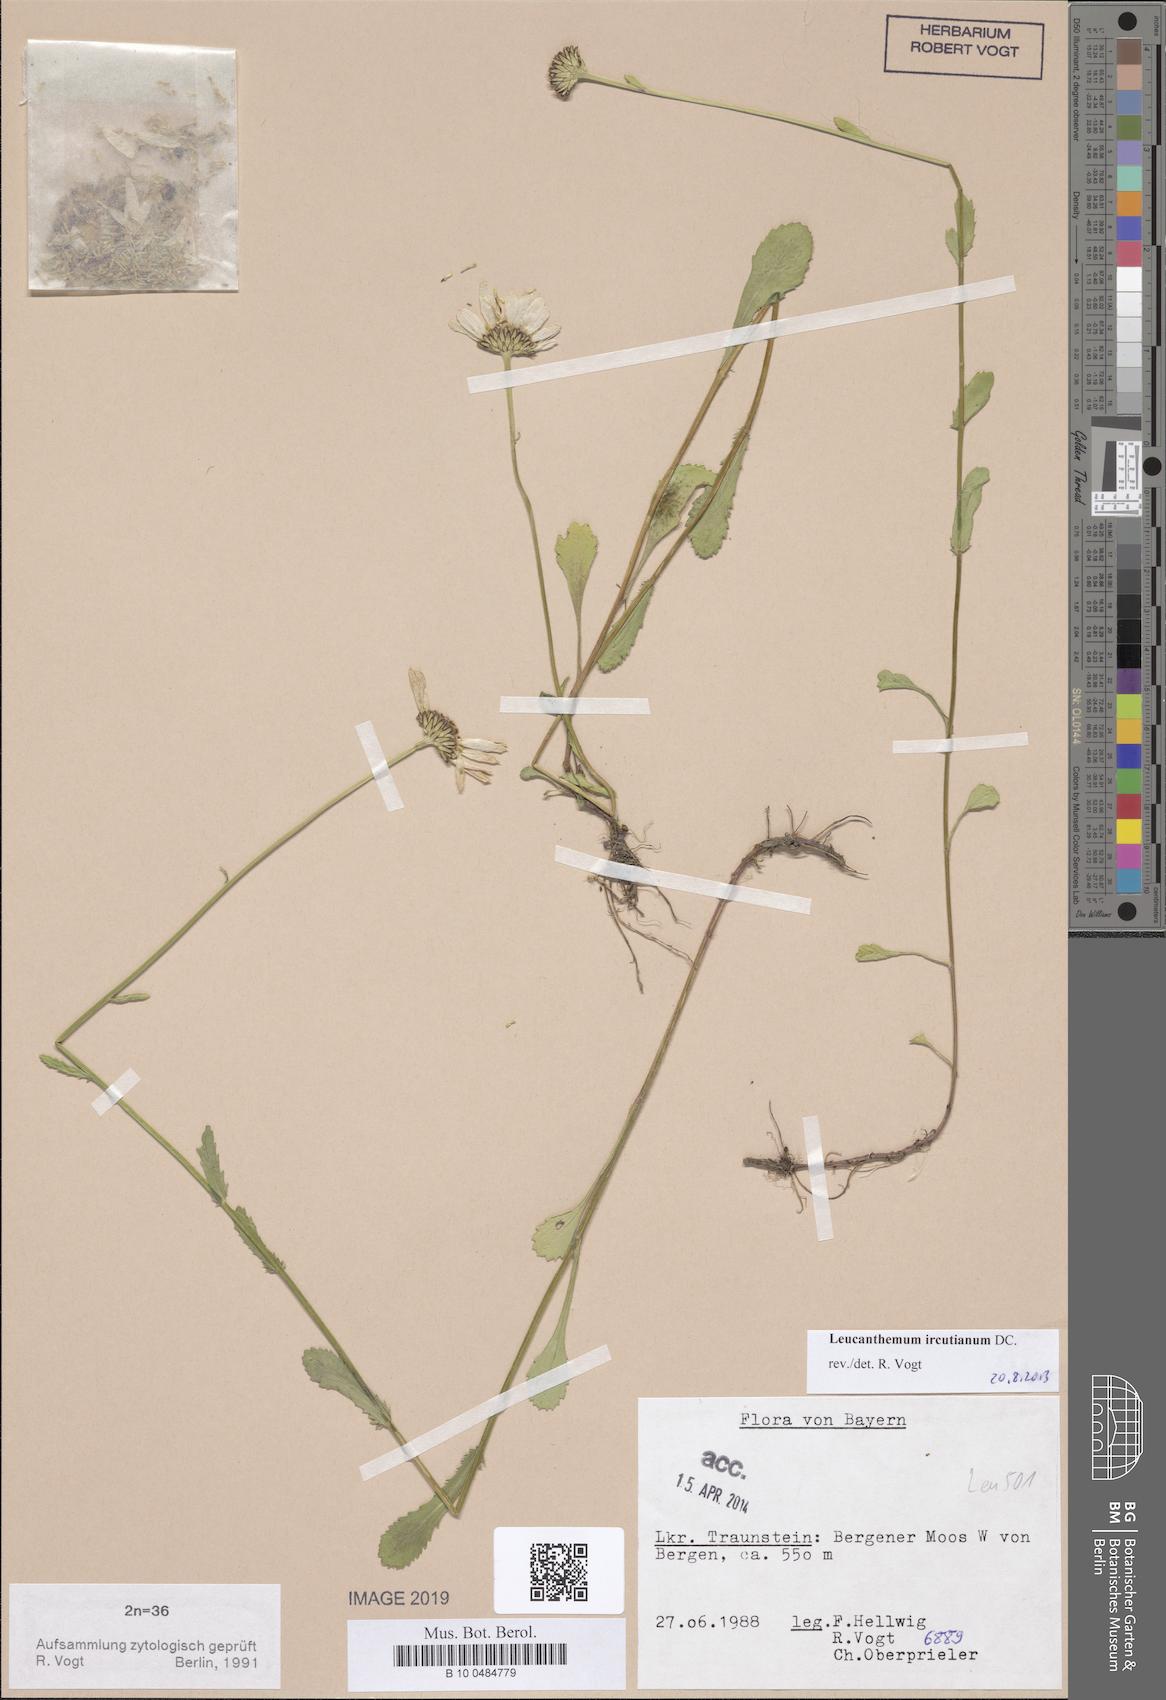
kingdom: Plantae
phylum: Tracheophyta
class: Magnoliopsida
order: Asterales
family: Asteraceae
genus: Leucanthemum
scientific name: Leucanthemum ircutianum
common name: Daisy
